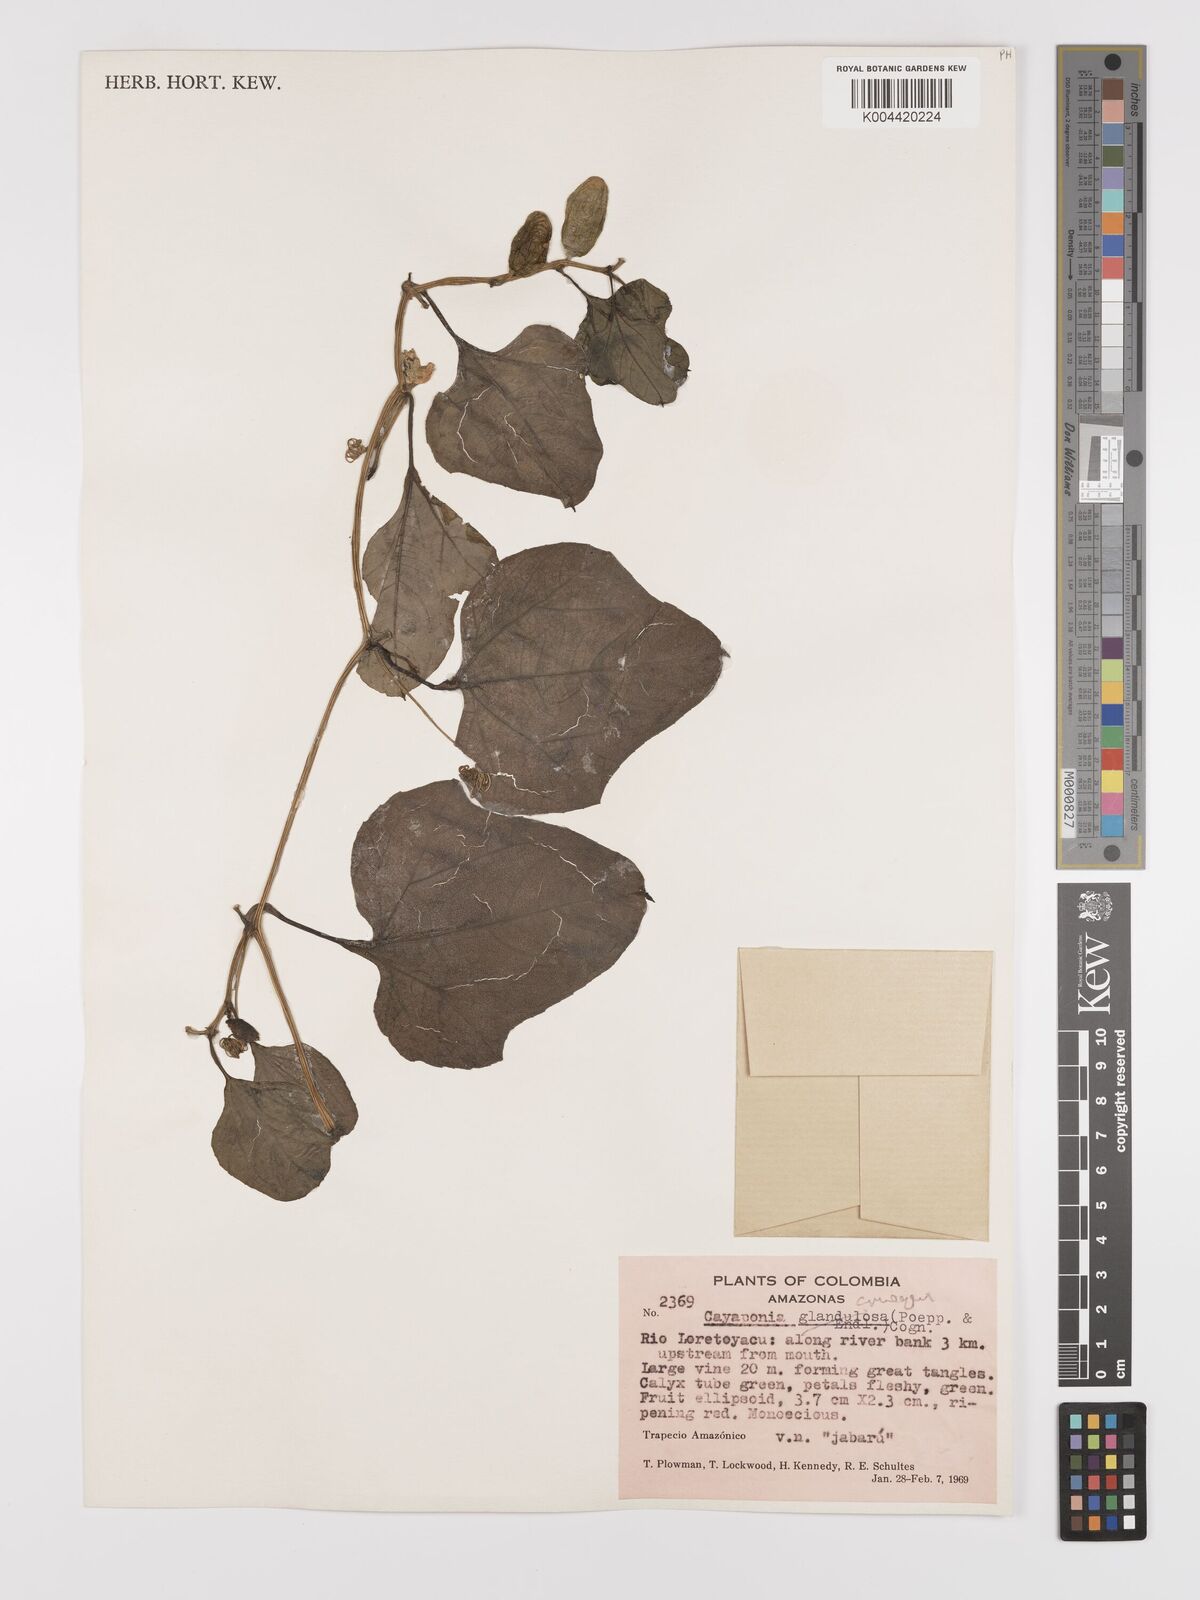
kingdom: Plantae
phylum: Tracheophyta
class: Magnoliopsida
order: Cucurbitales
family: Cucurbitaceae
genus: Cayaponia
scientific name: Cayaponia cruegeri
